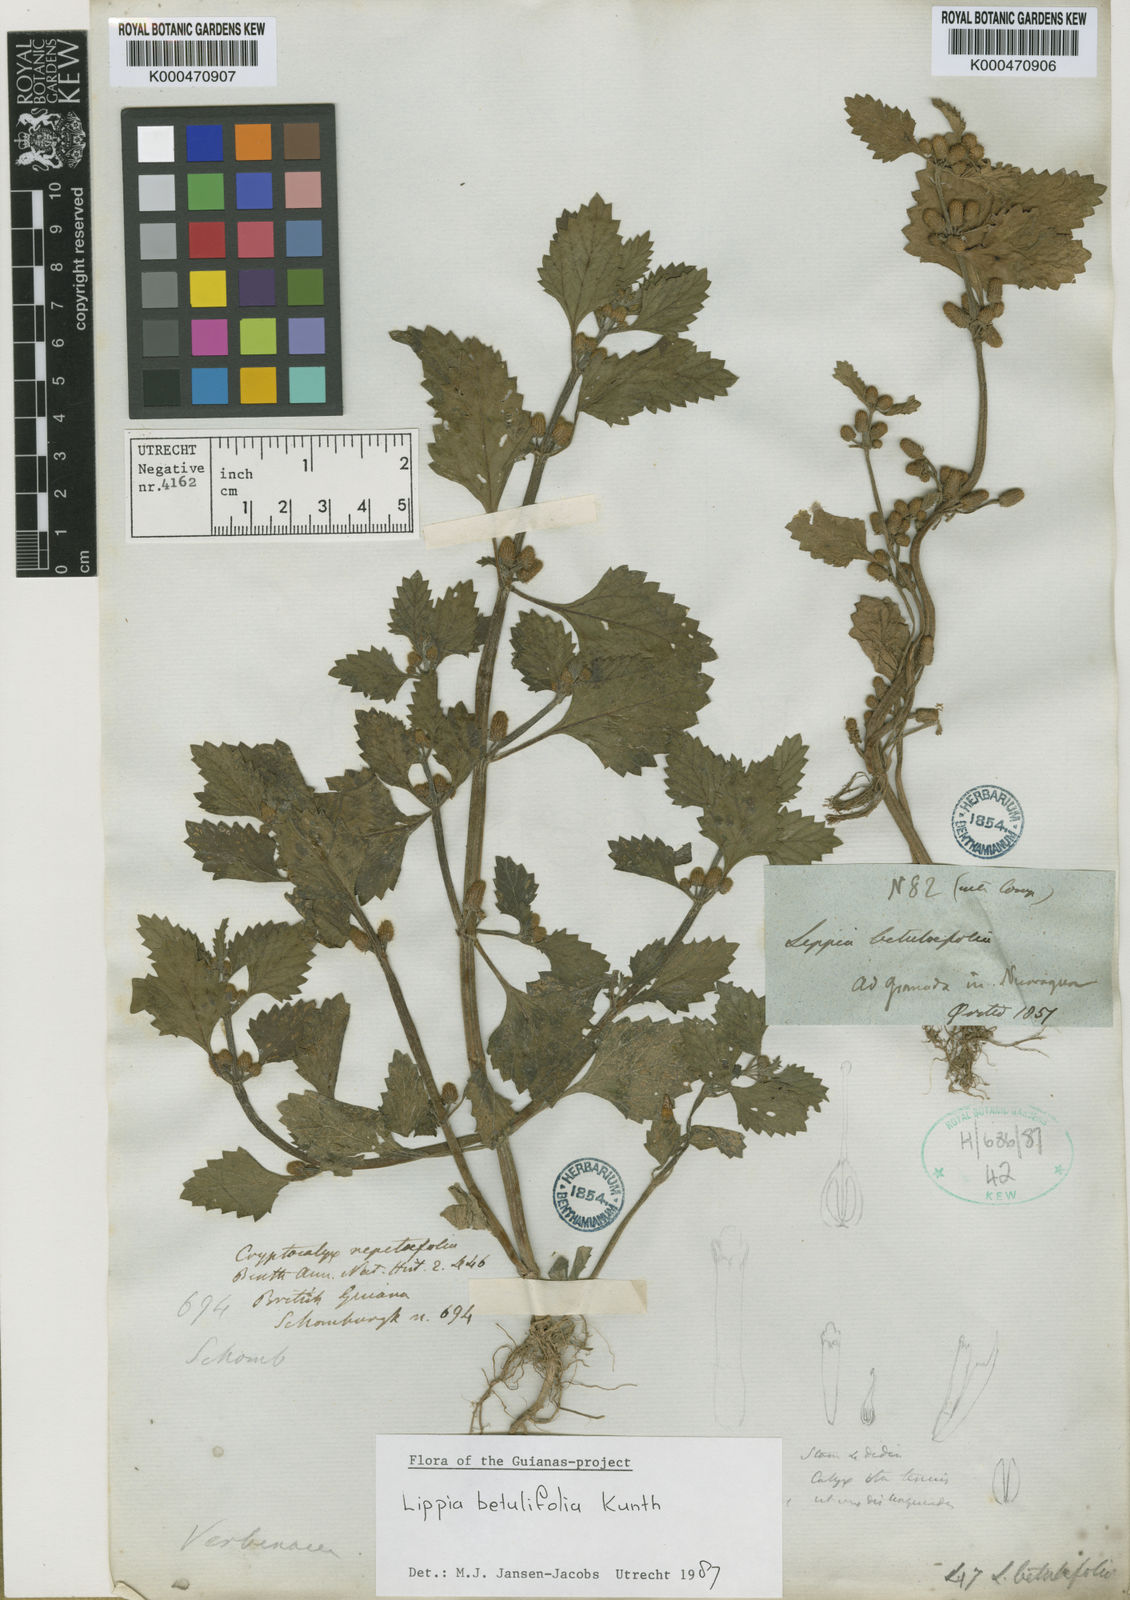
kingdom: Plantae
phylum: Tracheophyta
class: Magnoliopsida
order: Lamiales
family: Verbenaceae
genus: Lippia
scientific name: Lippia
